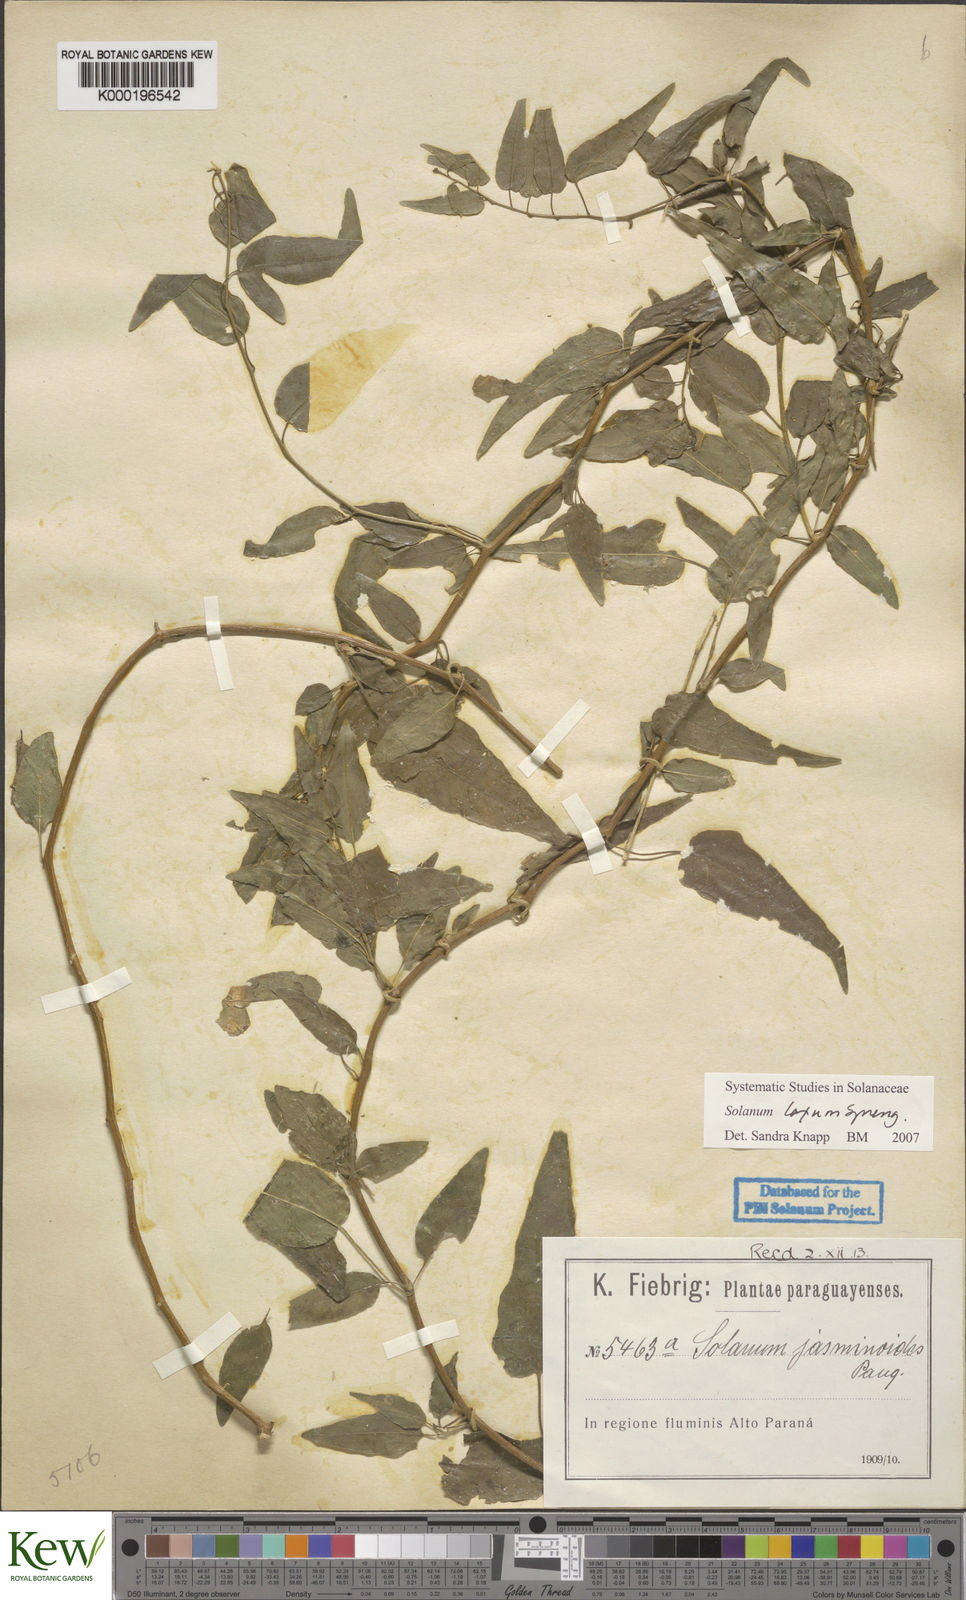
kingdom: Plantae
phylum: Tracheophyta
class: Magnoliopsida
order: Solanales
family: Solanaceae
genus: Solanum
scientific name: Solanum laxum
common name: Nightshade
